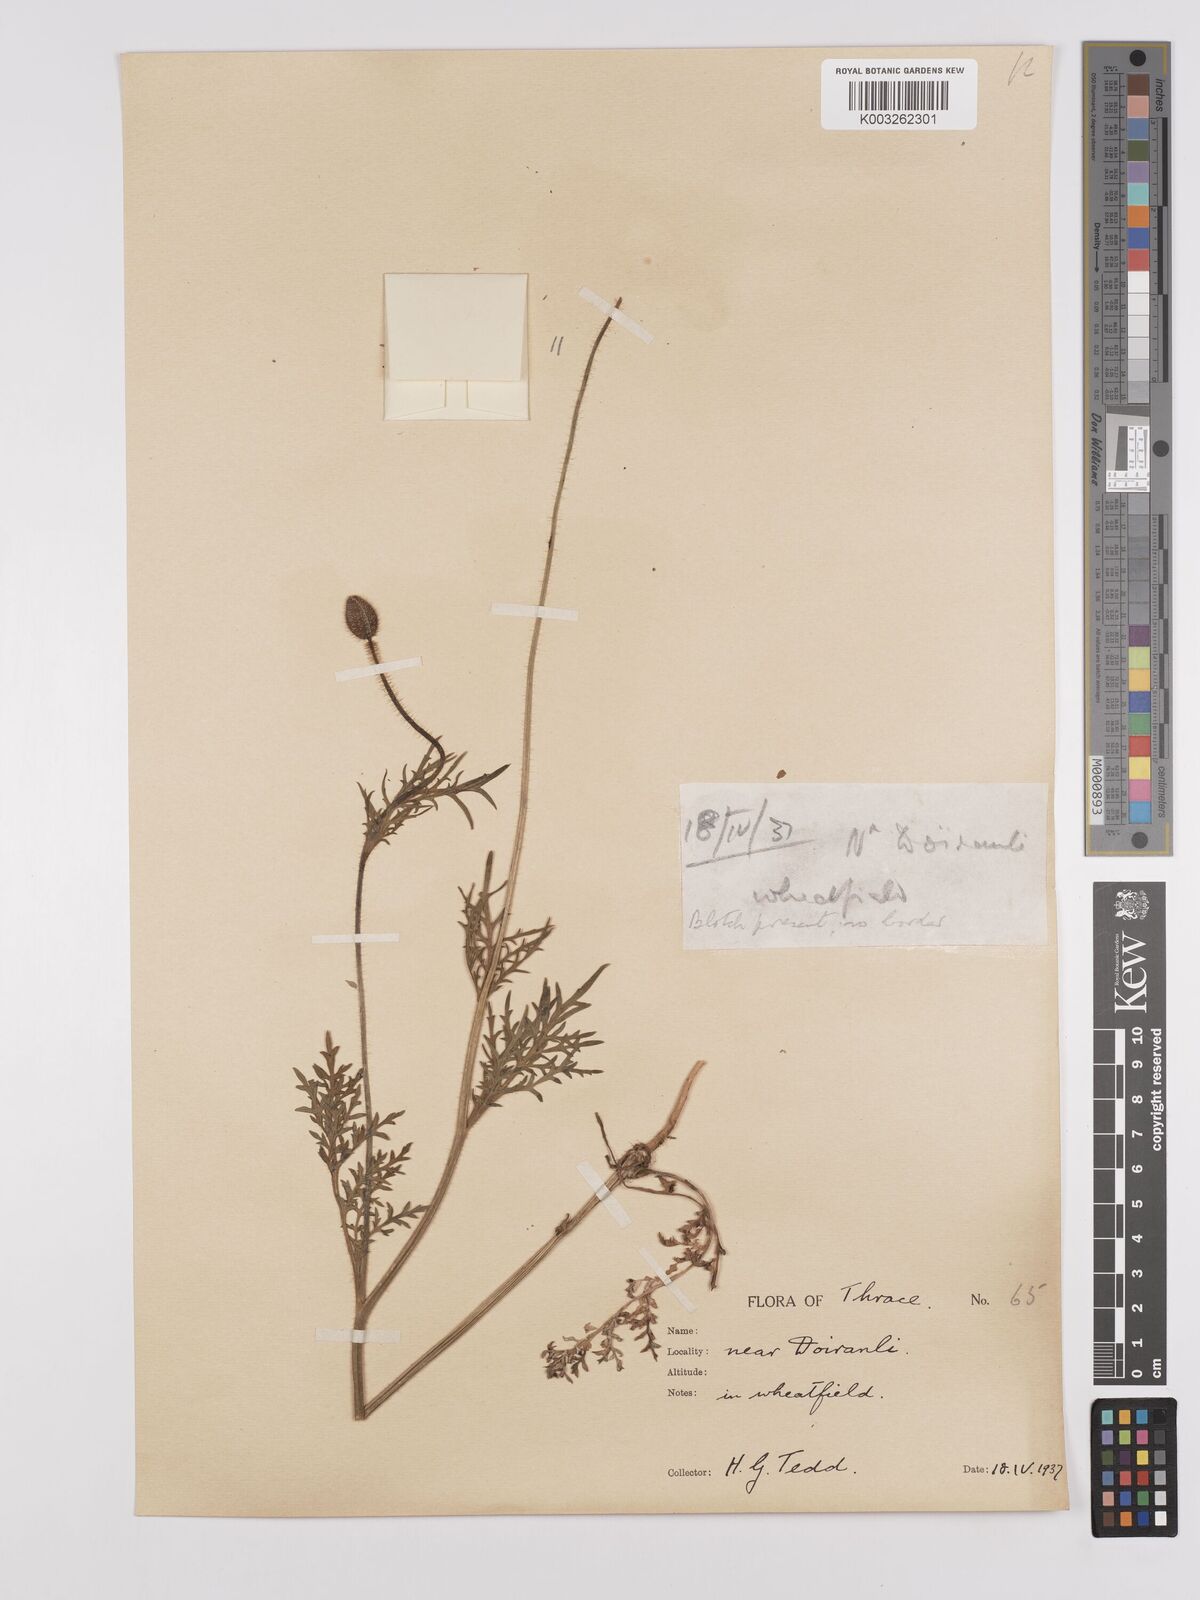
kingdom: Plantae
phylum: Tracheophyta
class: Magnoliopsida
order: Ranunculales
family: Papaveraceae
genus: Papaver
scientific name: Papaver rhoeas
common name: Corn poppy
